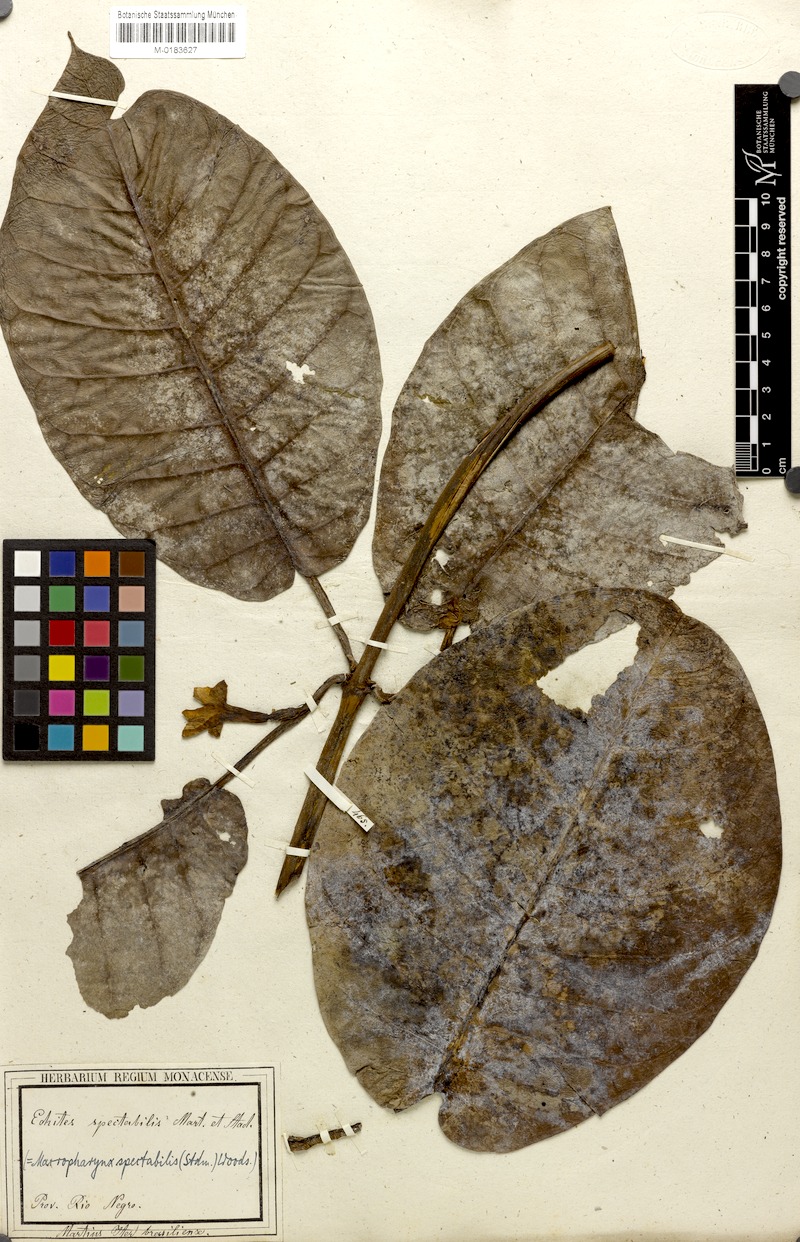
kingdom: Plantae
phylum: Tracheophyta
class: Magnoliopsida
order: Gentianales
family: Apocynaceae
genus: Macropharynx
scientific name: Macropharynx spectabilis
